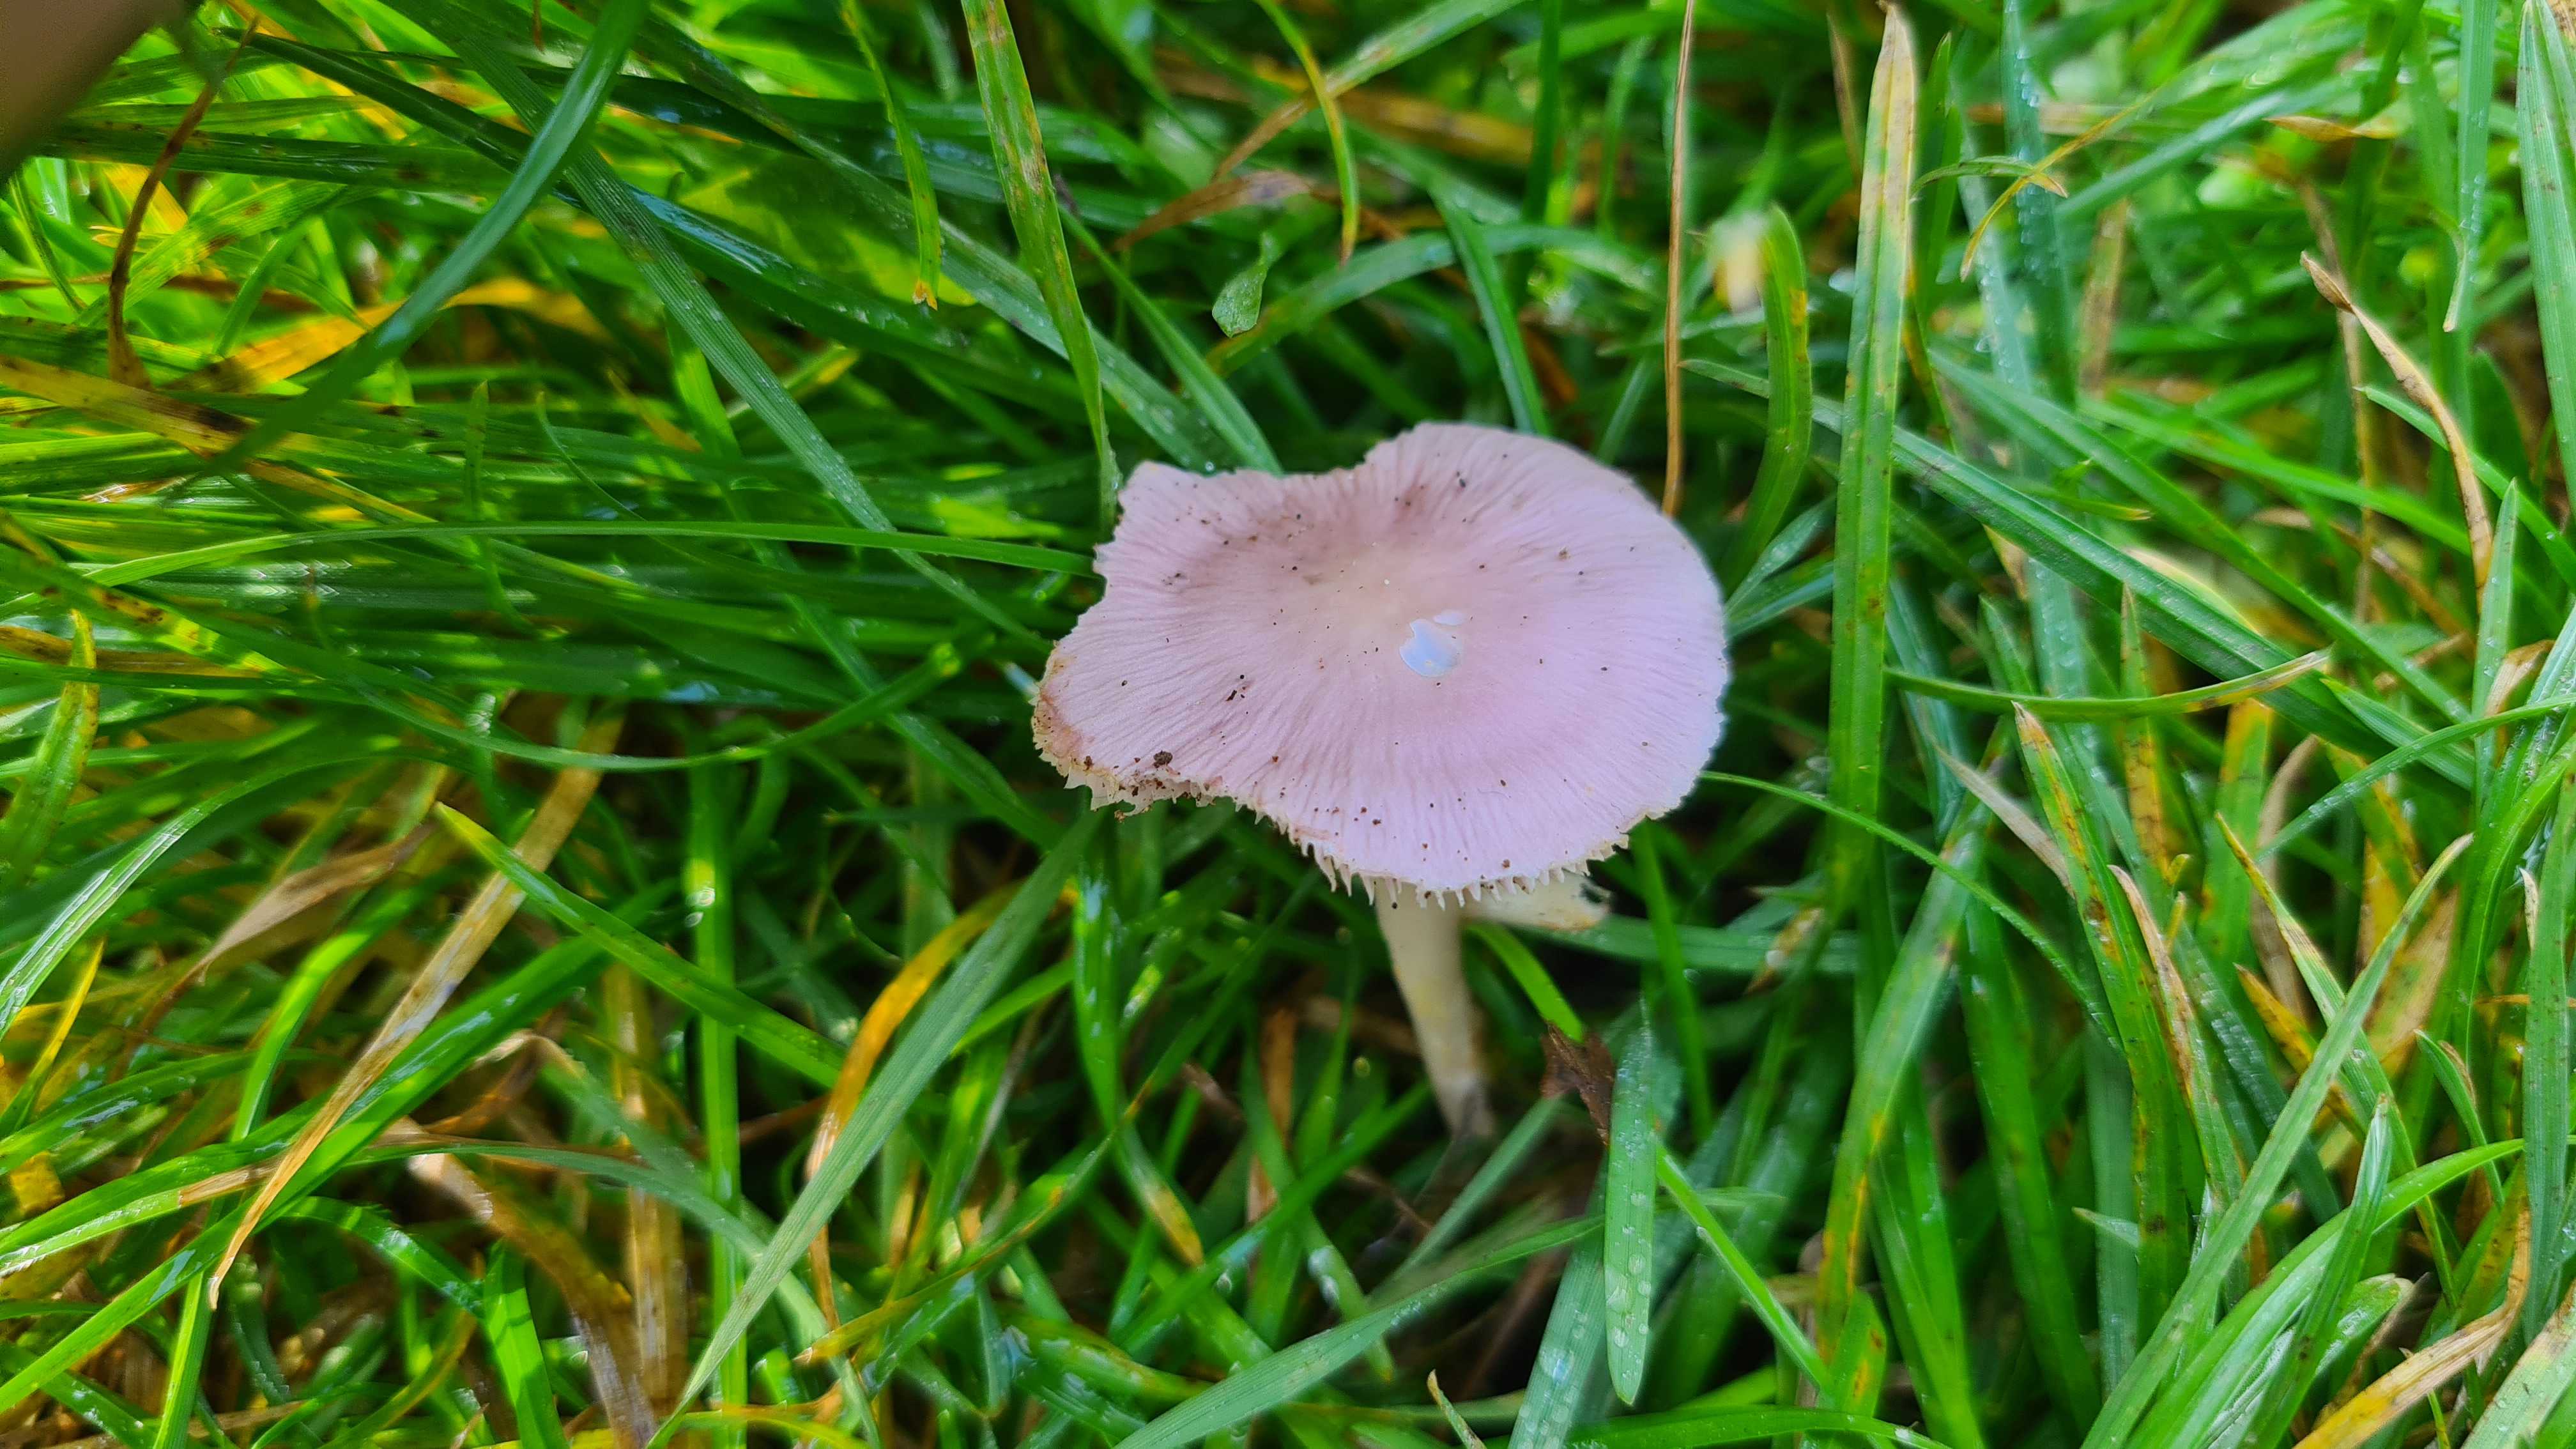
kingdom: Fungi
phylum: Basidiomycota
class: Agaricomycetes
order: Agaricales
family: Mycenaceae
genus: Mycena
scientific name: Mycena rosea
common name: rosa huesvamp
